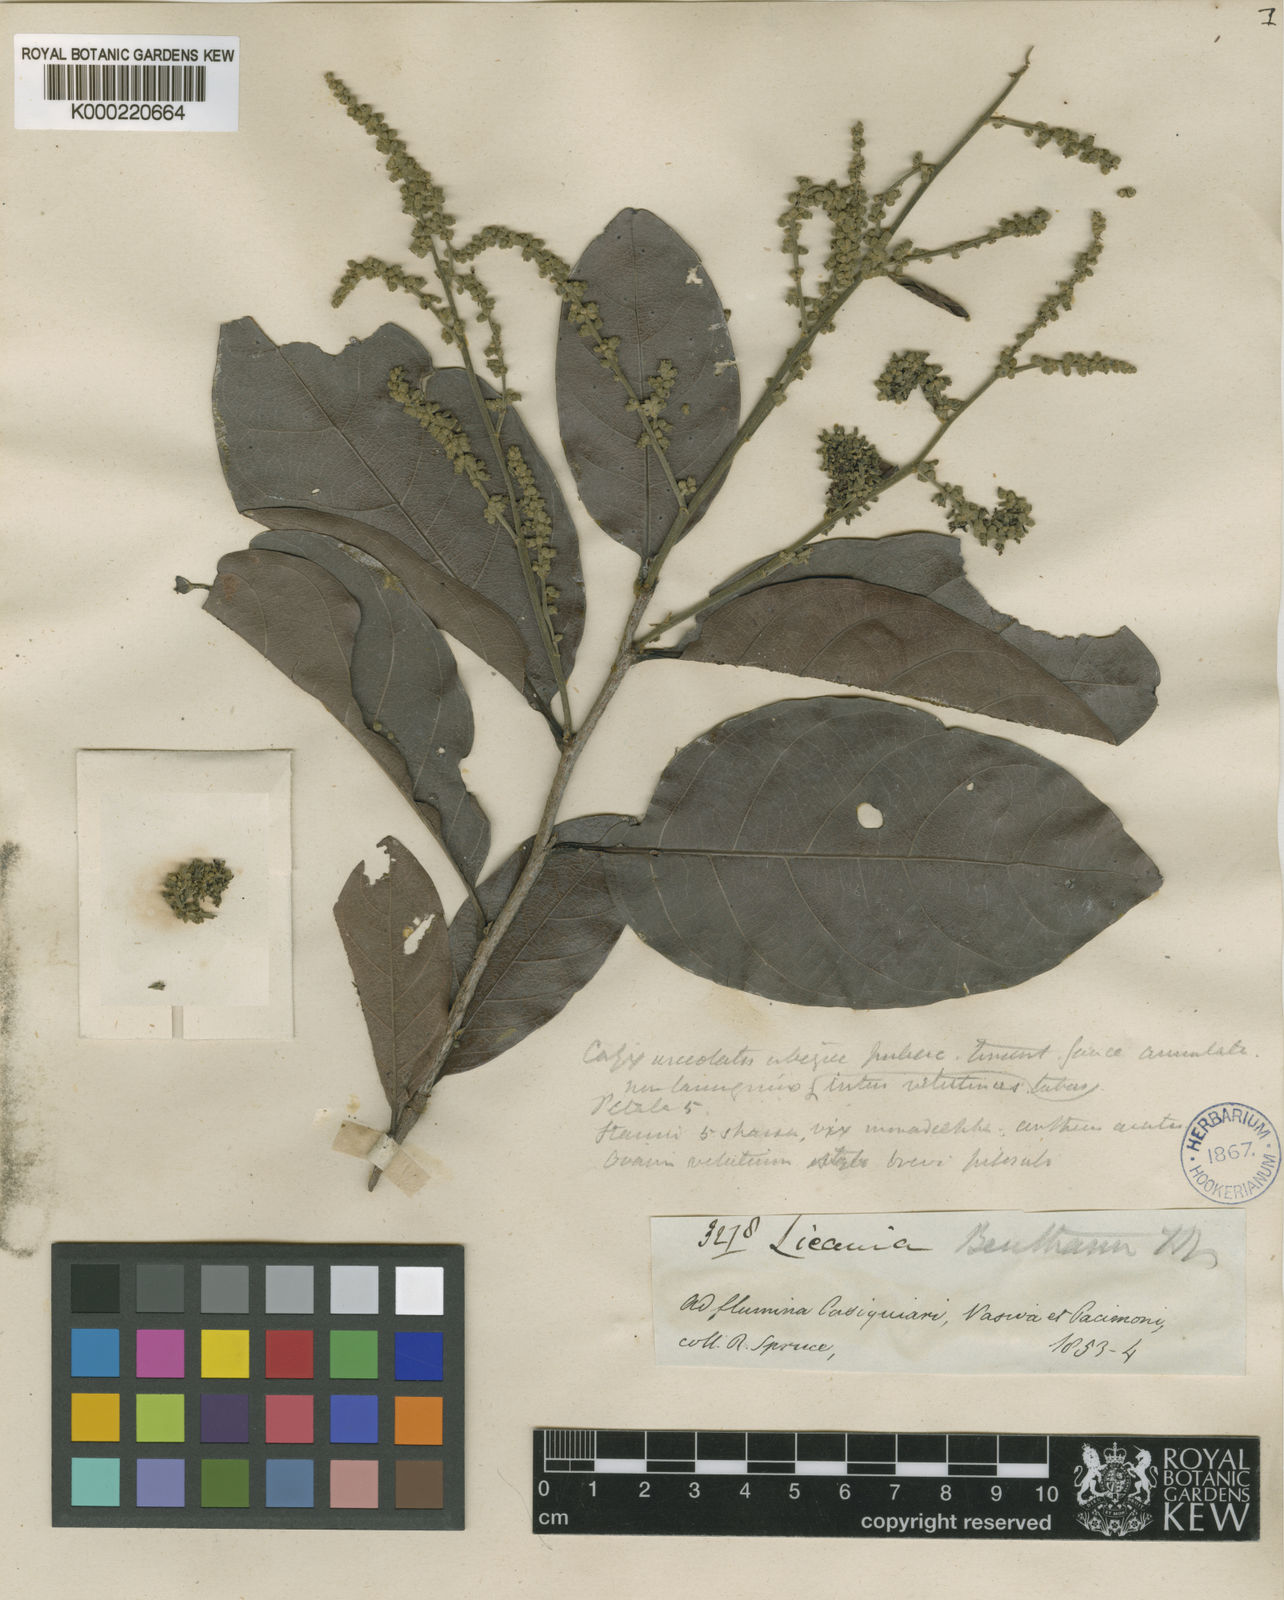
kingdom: Plantae
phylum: Tracheophyta
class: Magnoliopsida
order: Malpighiales
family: Chrysobalanaceae
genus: Hymenopus
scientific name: Hymenopus heteromorphus
